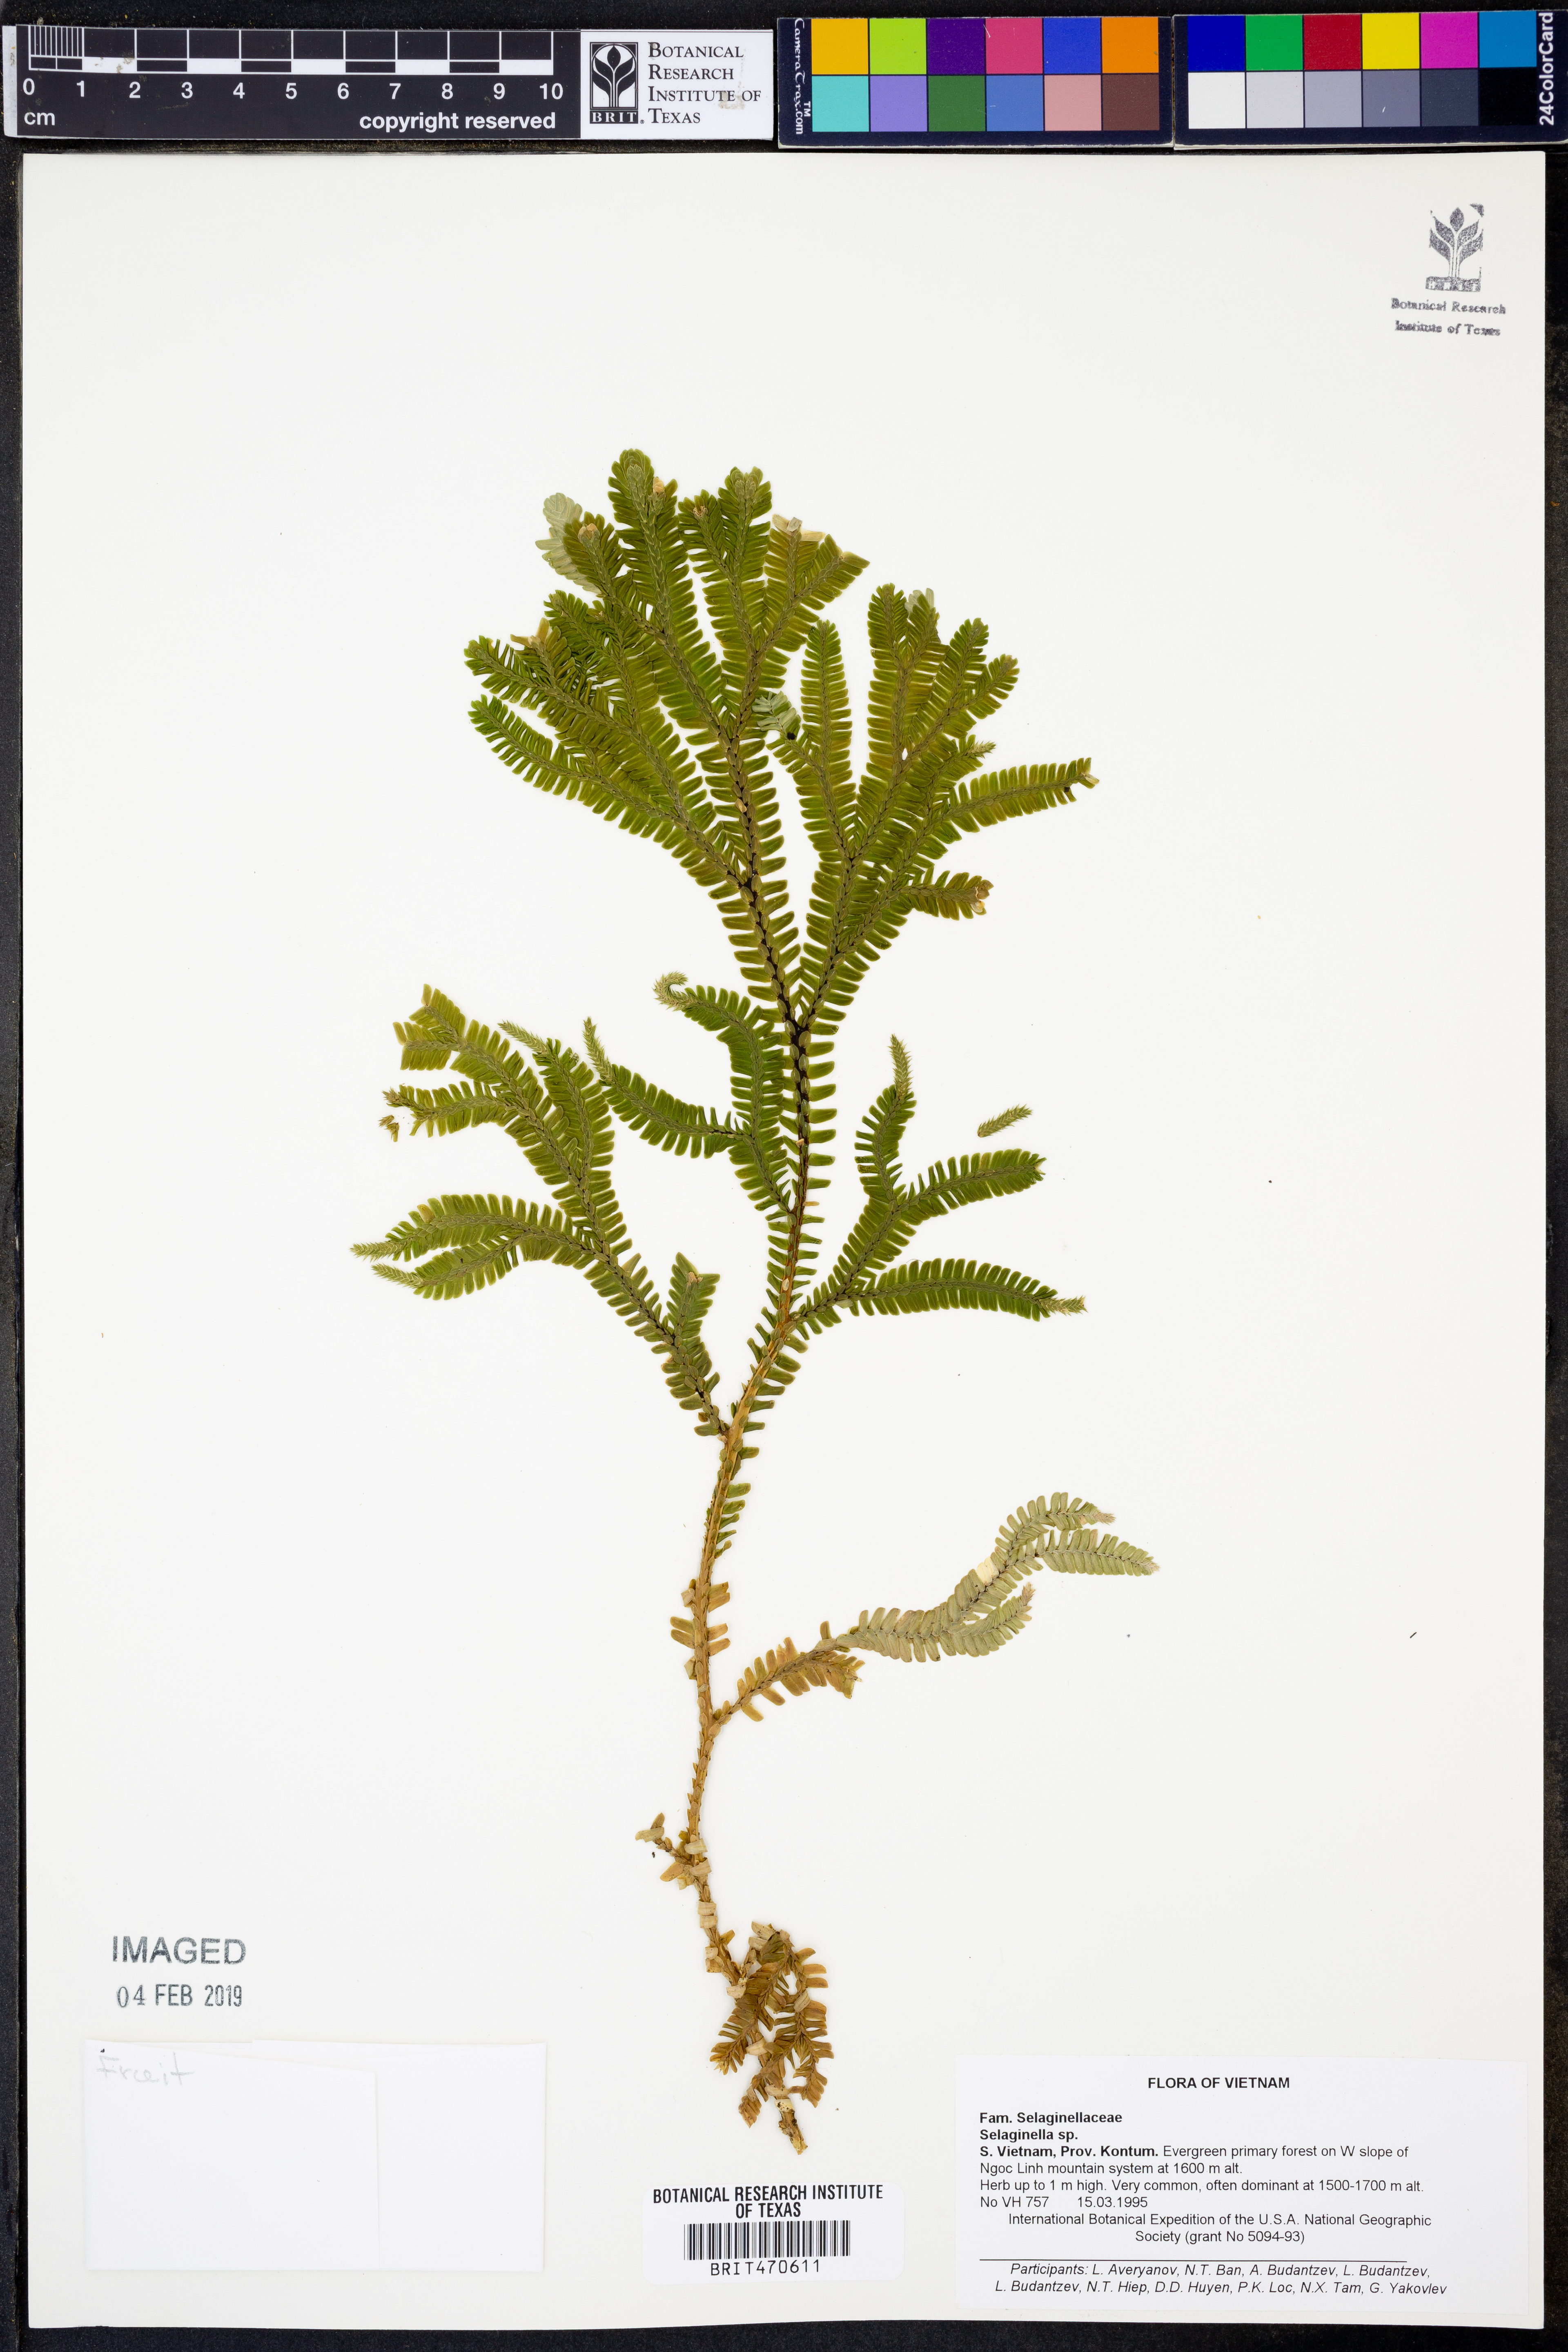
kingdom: Plantae
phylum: Tracheophyta
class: Lycopodiopsida
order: Selaginellales
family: Selaginellaceae
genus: Selaginella
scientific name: Selaginella
